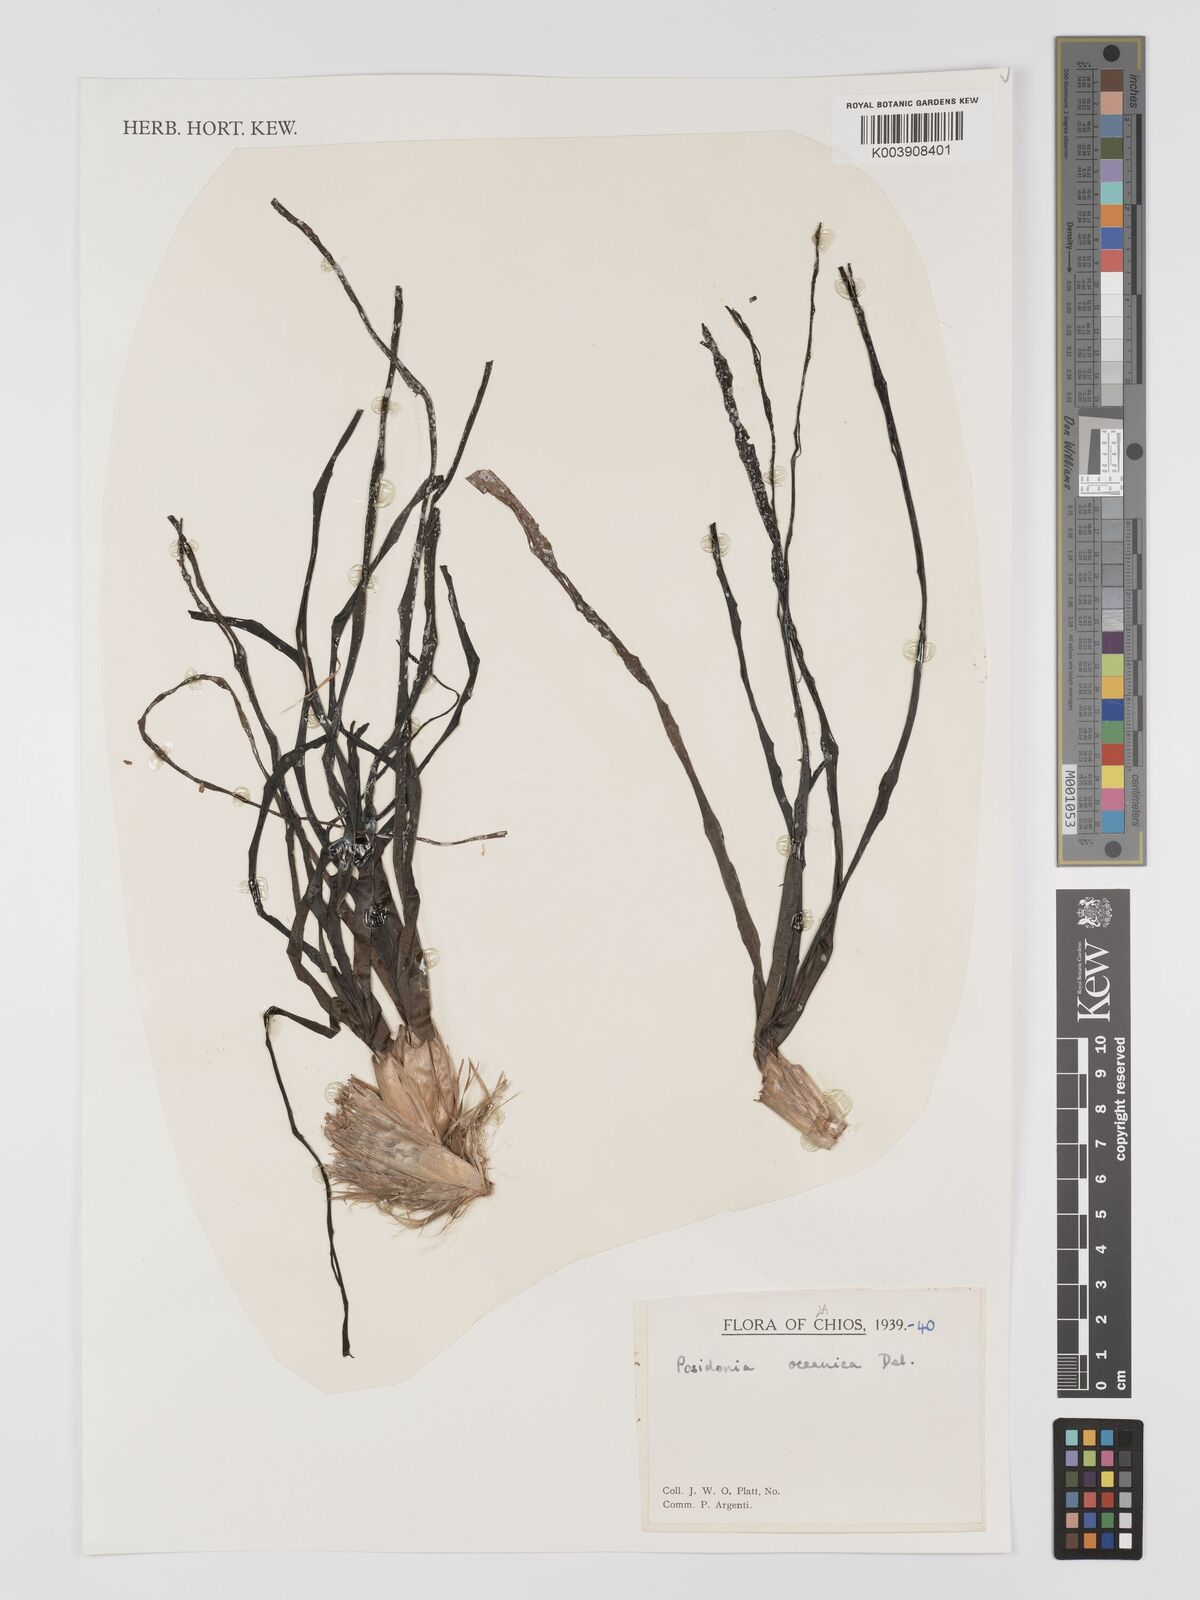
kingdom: Plantae
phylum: Tracheophyta
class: Liliopsida
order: Alismatales
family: Posidoniaceae
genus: Posidonia
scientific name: Posidonia oceanica
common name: Mediterranean tapeweed
